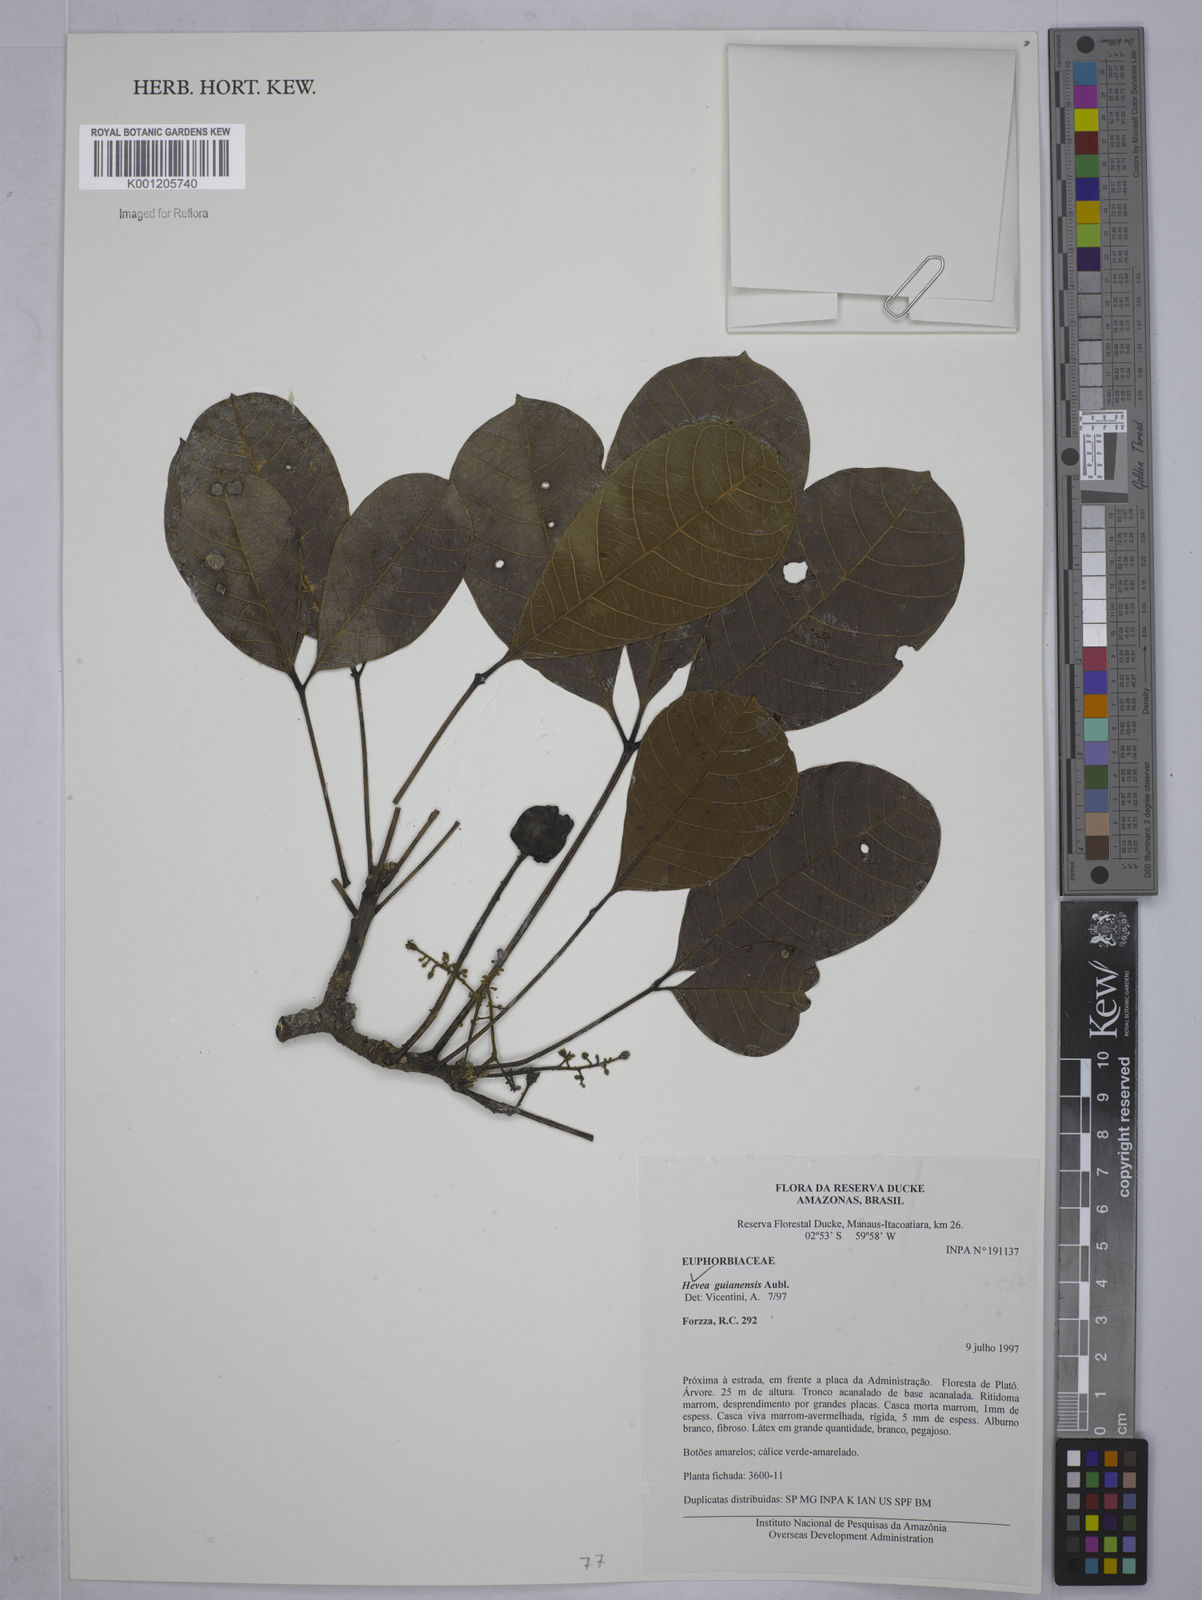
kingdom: Plantae
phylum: Tracheophyta
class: Magnoliopsida
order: Malpighiales
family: Euphorbiaceae
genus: Hevea
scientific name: Hevea guianensis
